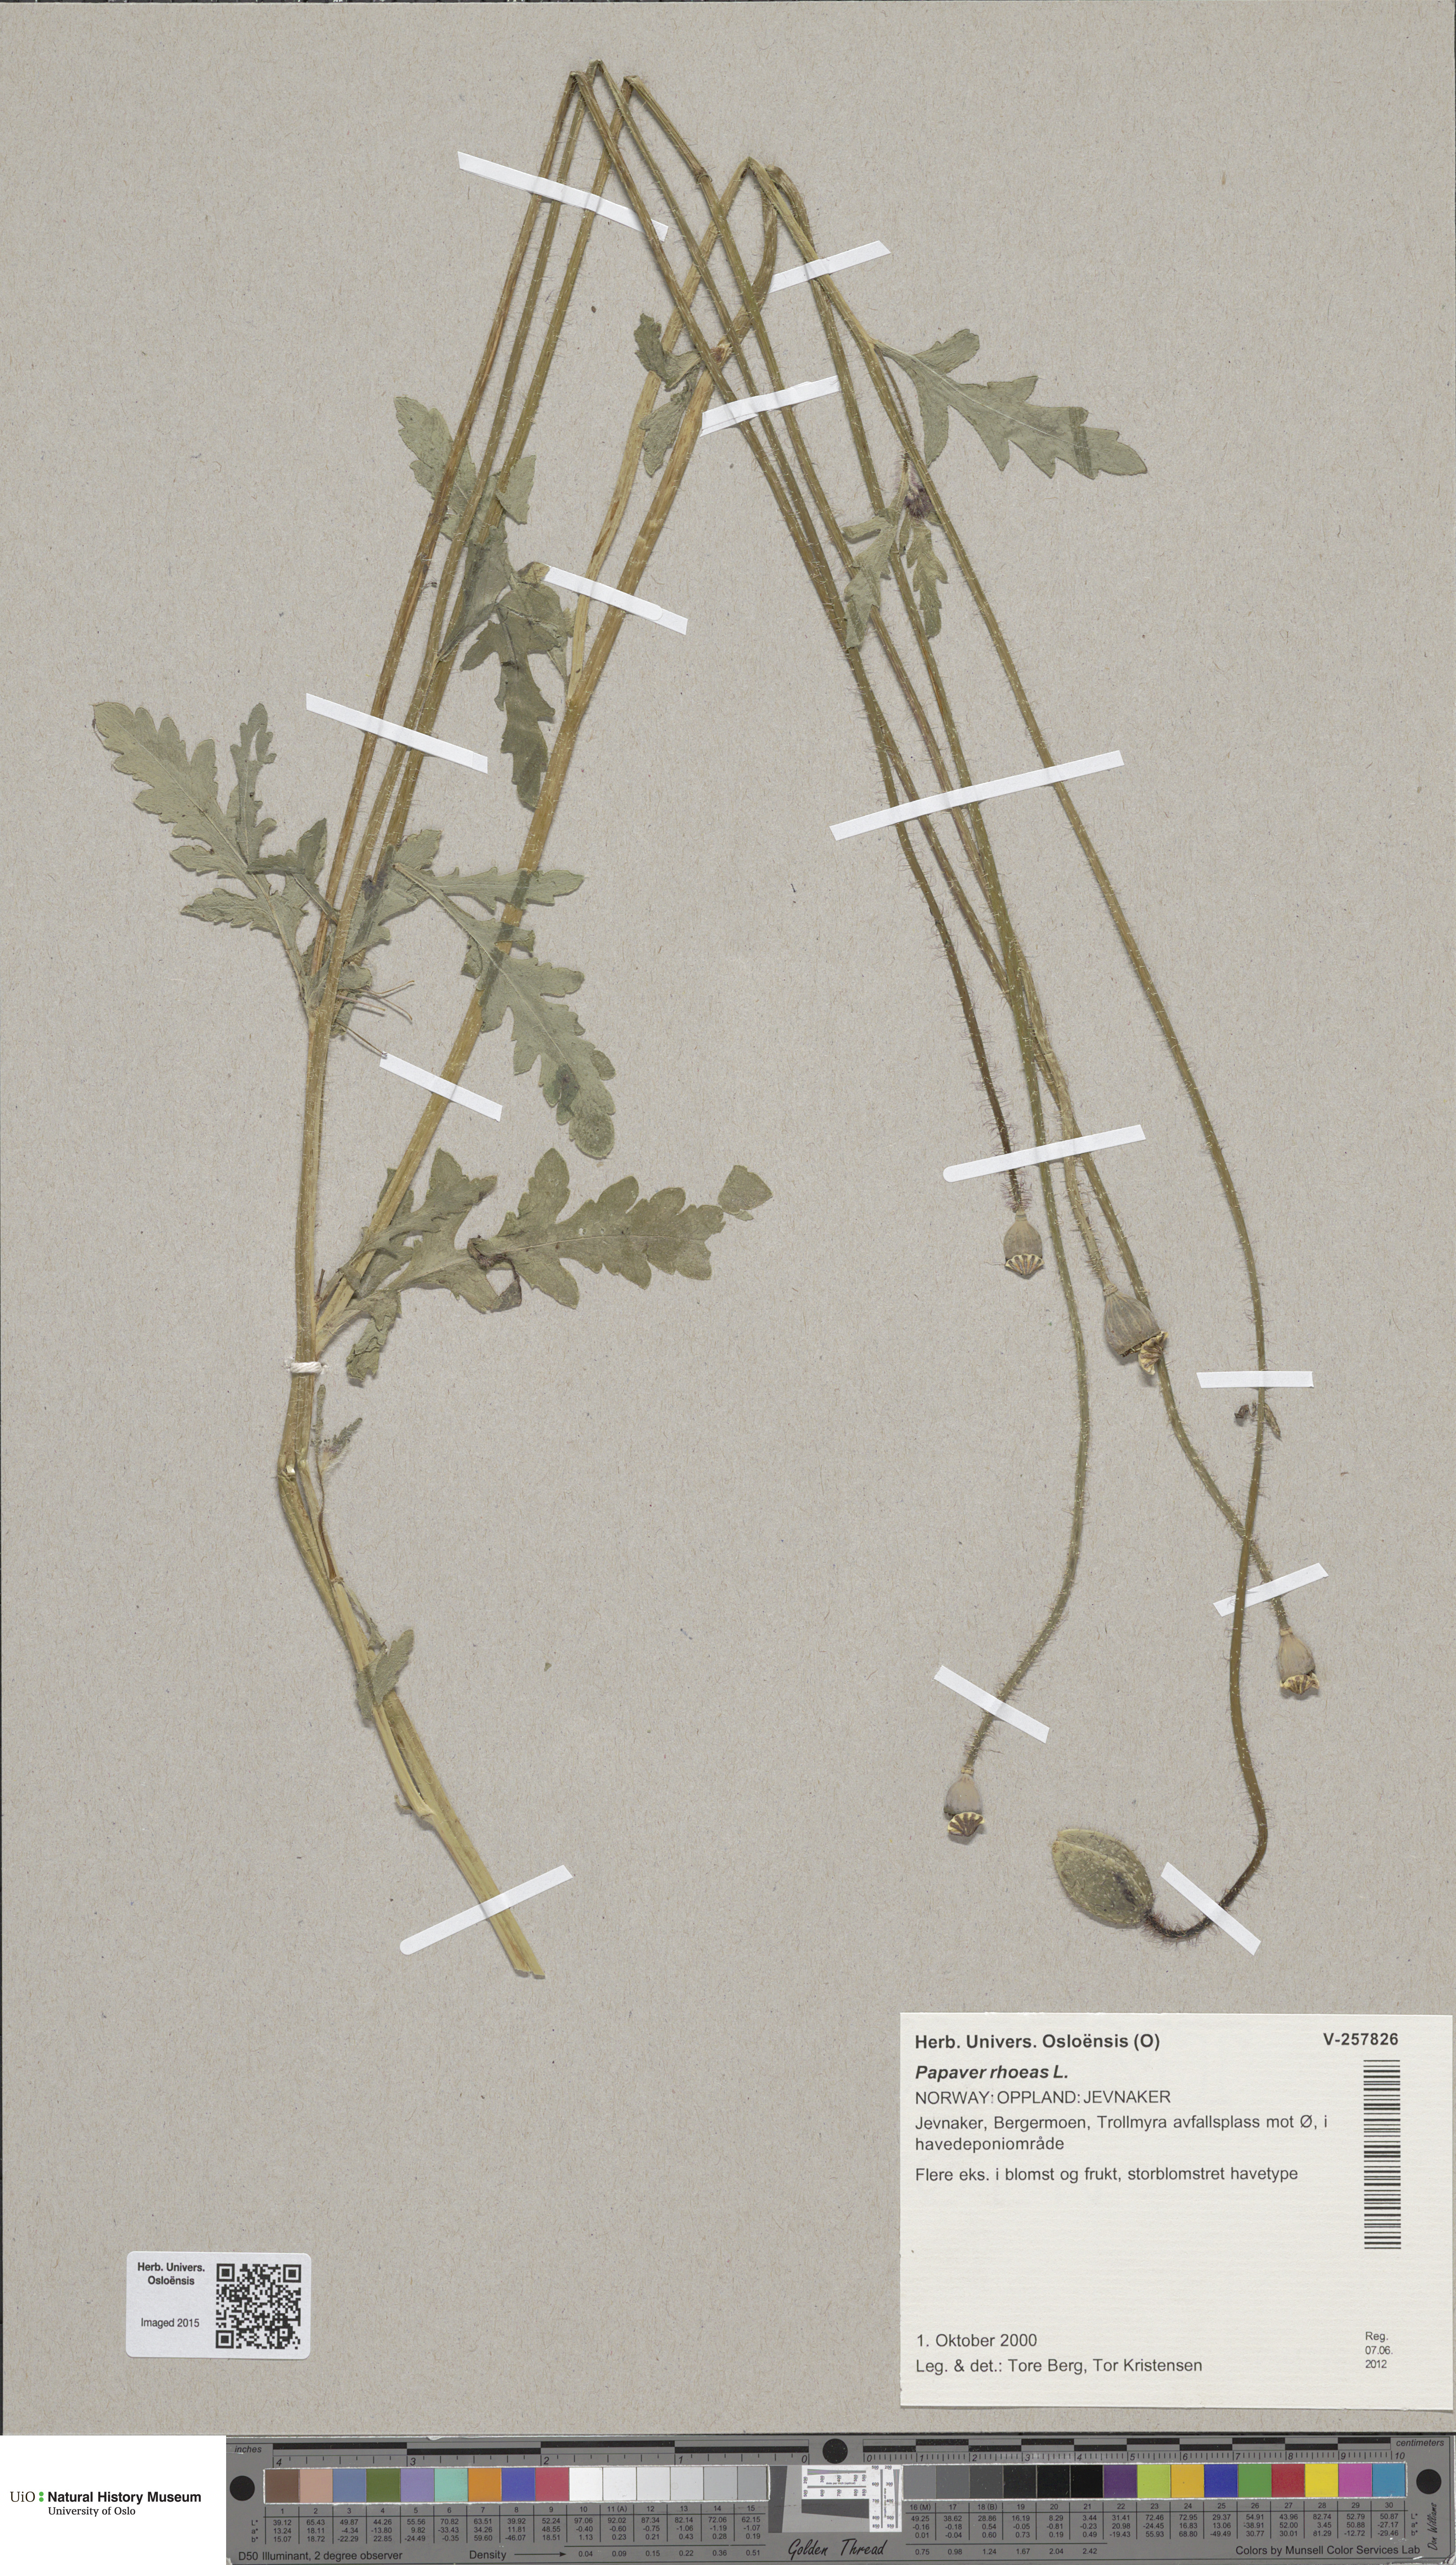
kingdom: Plantae
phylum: Tracheophyta
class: Magnoliopsida
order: Ranunculales
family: Papaveraceae
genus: Papaver
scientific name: Papaver rhoeas
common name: Corn poppy
